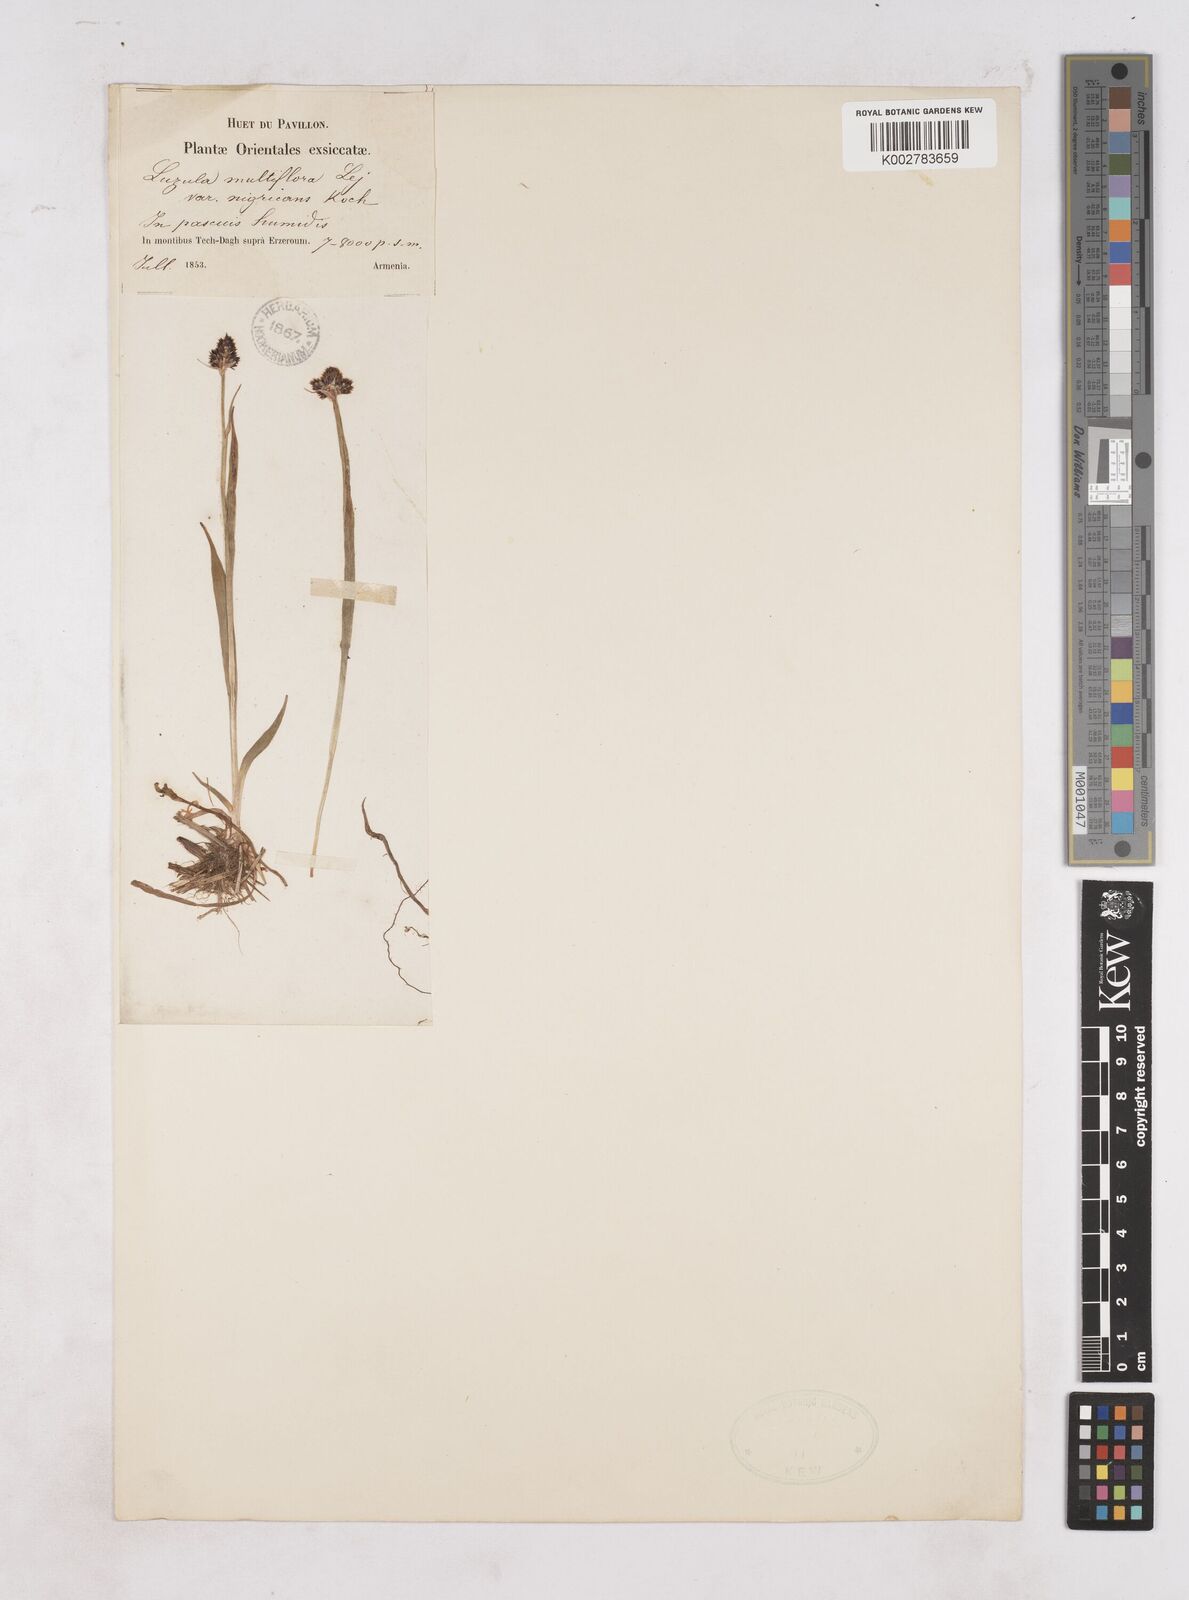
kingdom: Plantae
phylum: Tracheophyta
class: Liliopsida
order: Poales
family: Juncaceae
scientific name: Juncaceae
